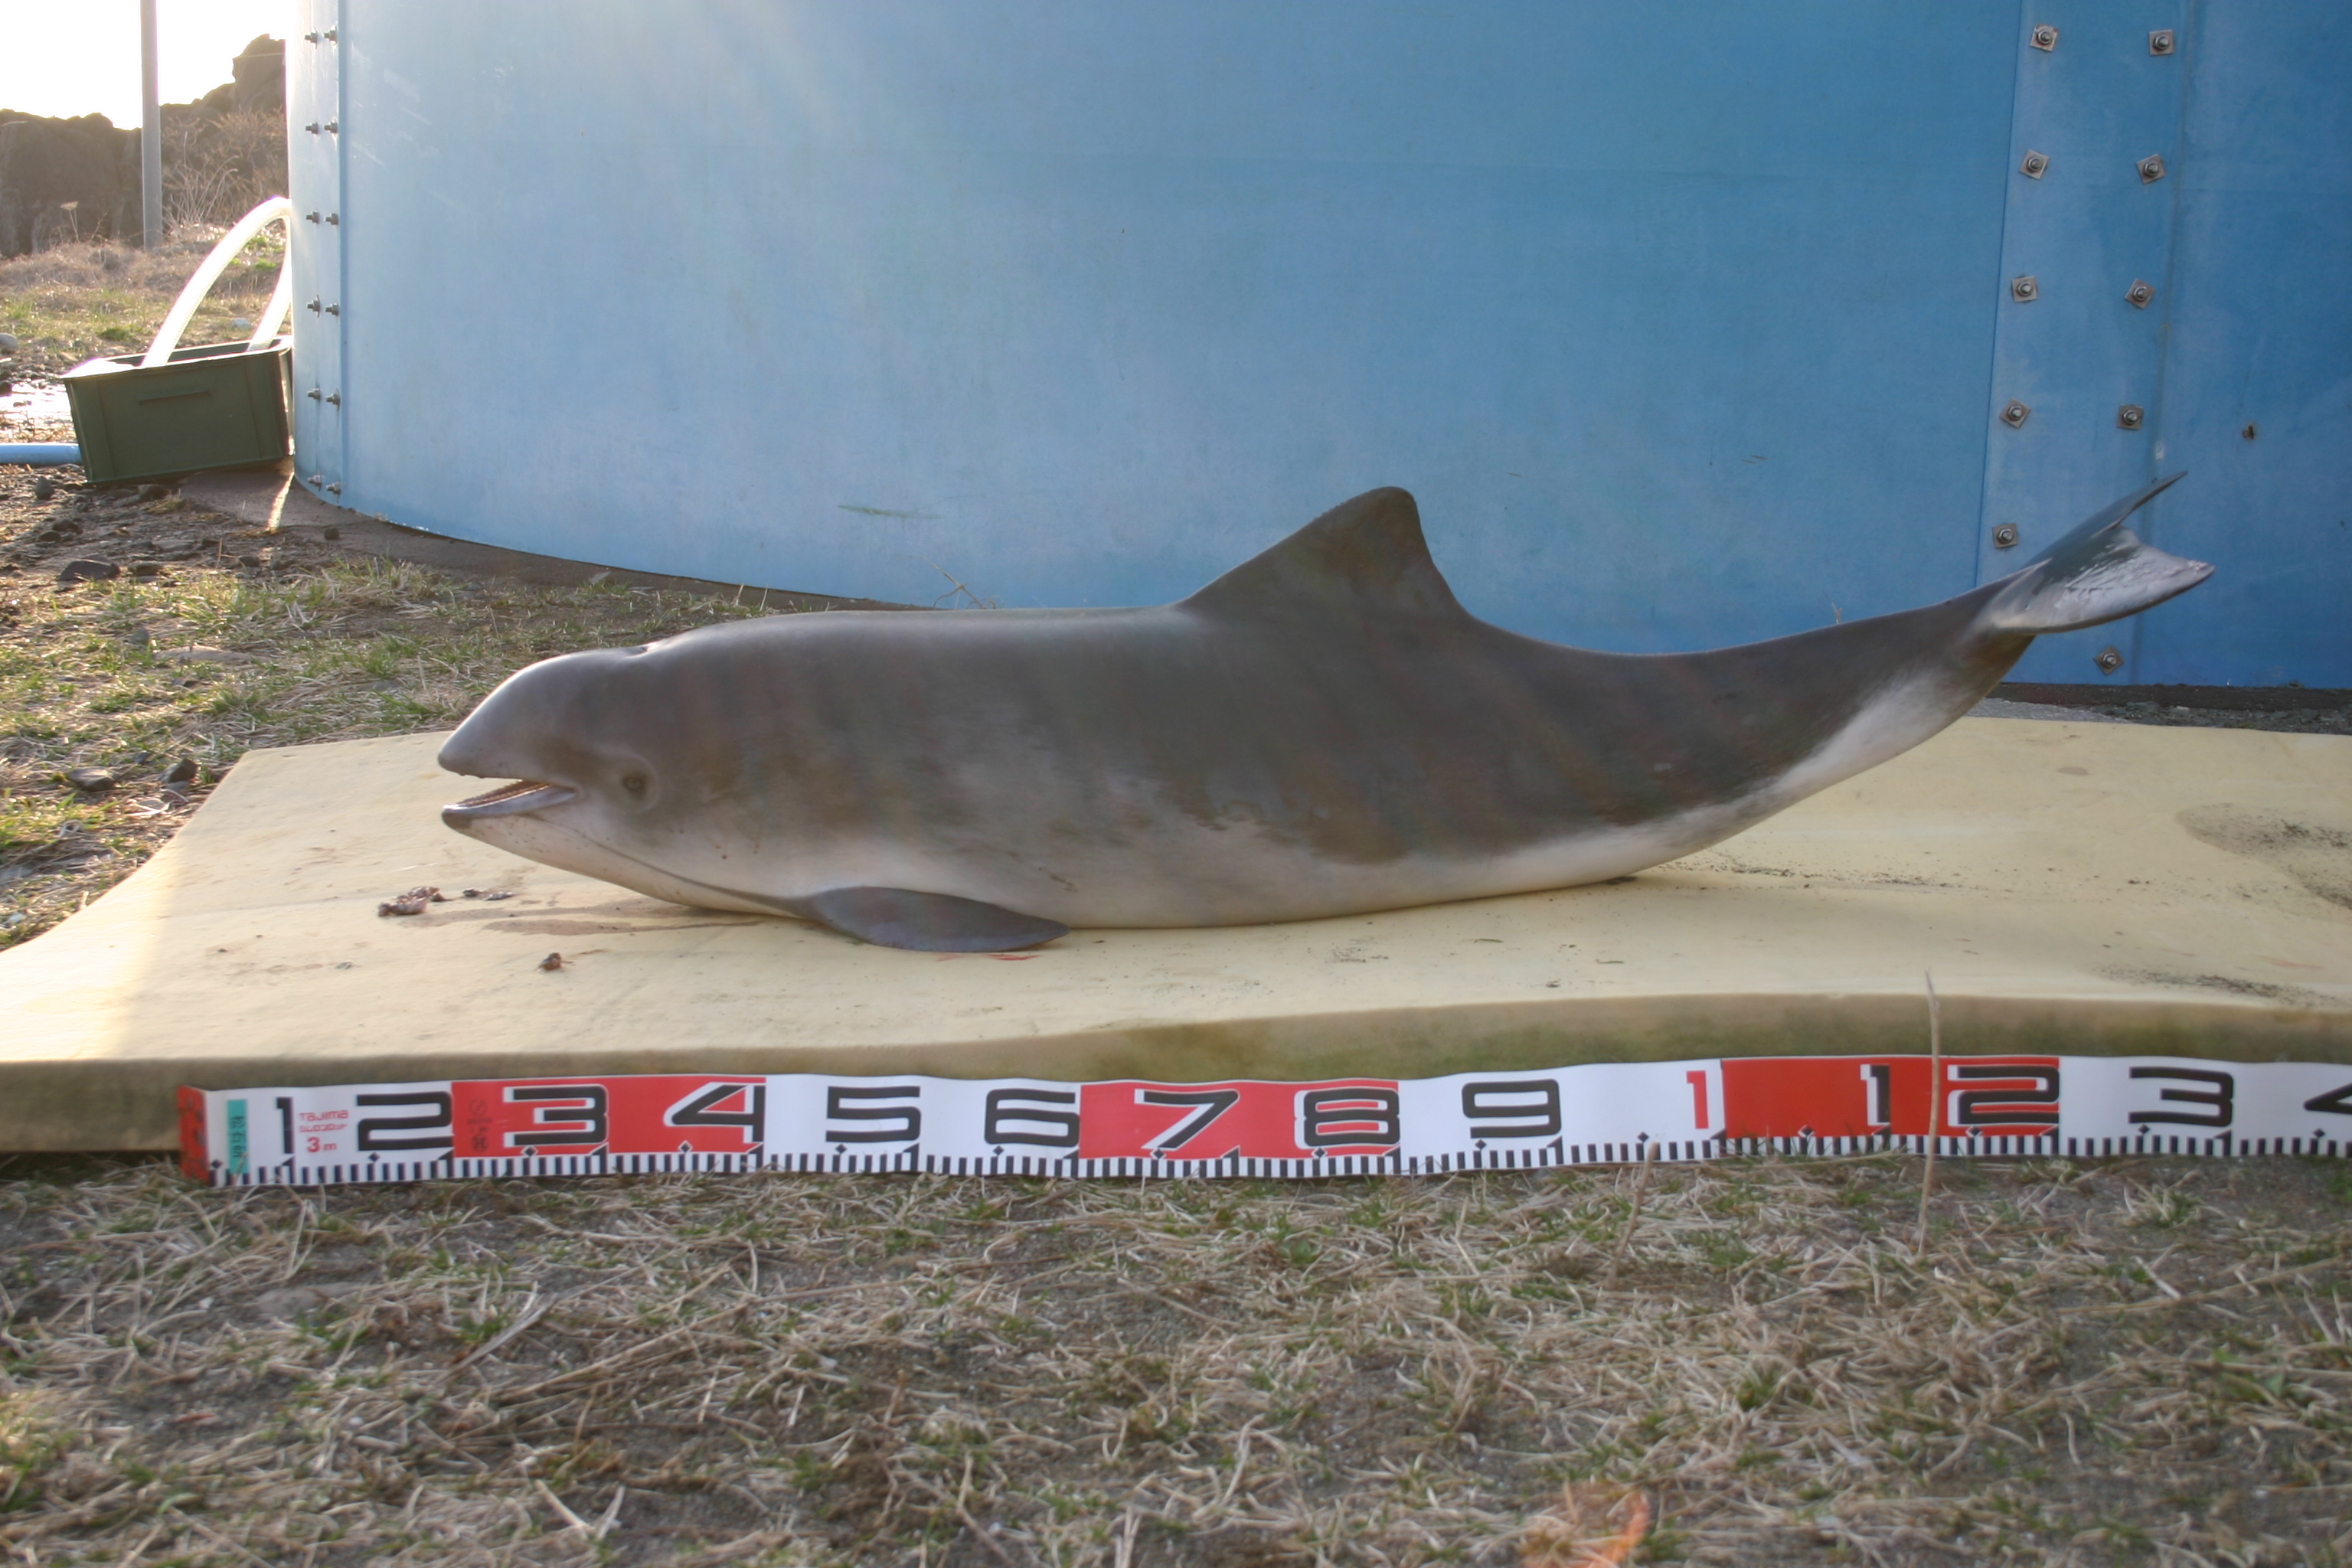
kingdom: Animalia
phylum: Chordata
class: Mammalia
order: Cetacea
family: Phocoenidae
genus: Phocoena
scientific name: Phocoena phocoena
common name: Harbour porpoise
